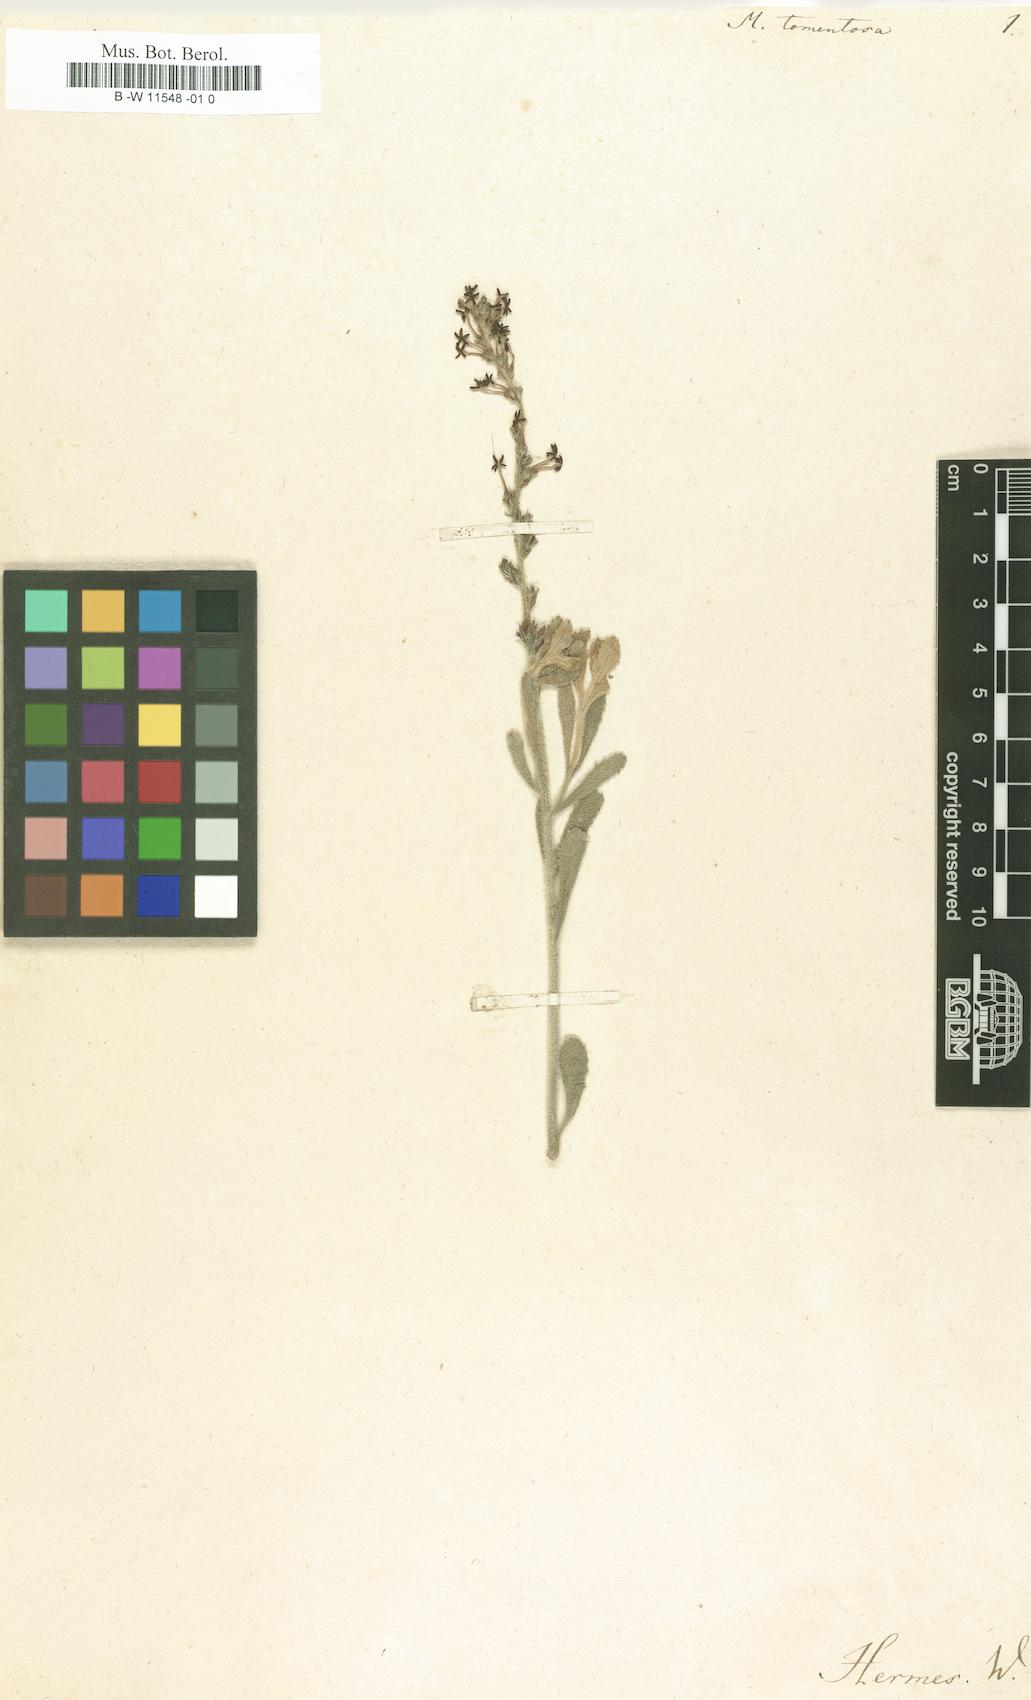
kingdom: Plantae
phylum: Tracheophyta
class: Magnoliopsida
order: Lamiales
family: Scrophulariaceae
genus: Manulea
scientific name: Manulea tomentosa
